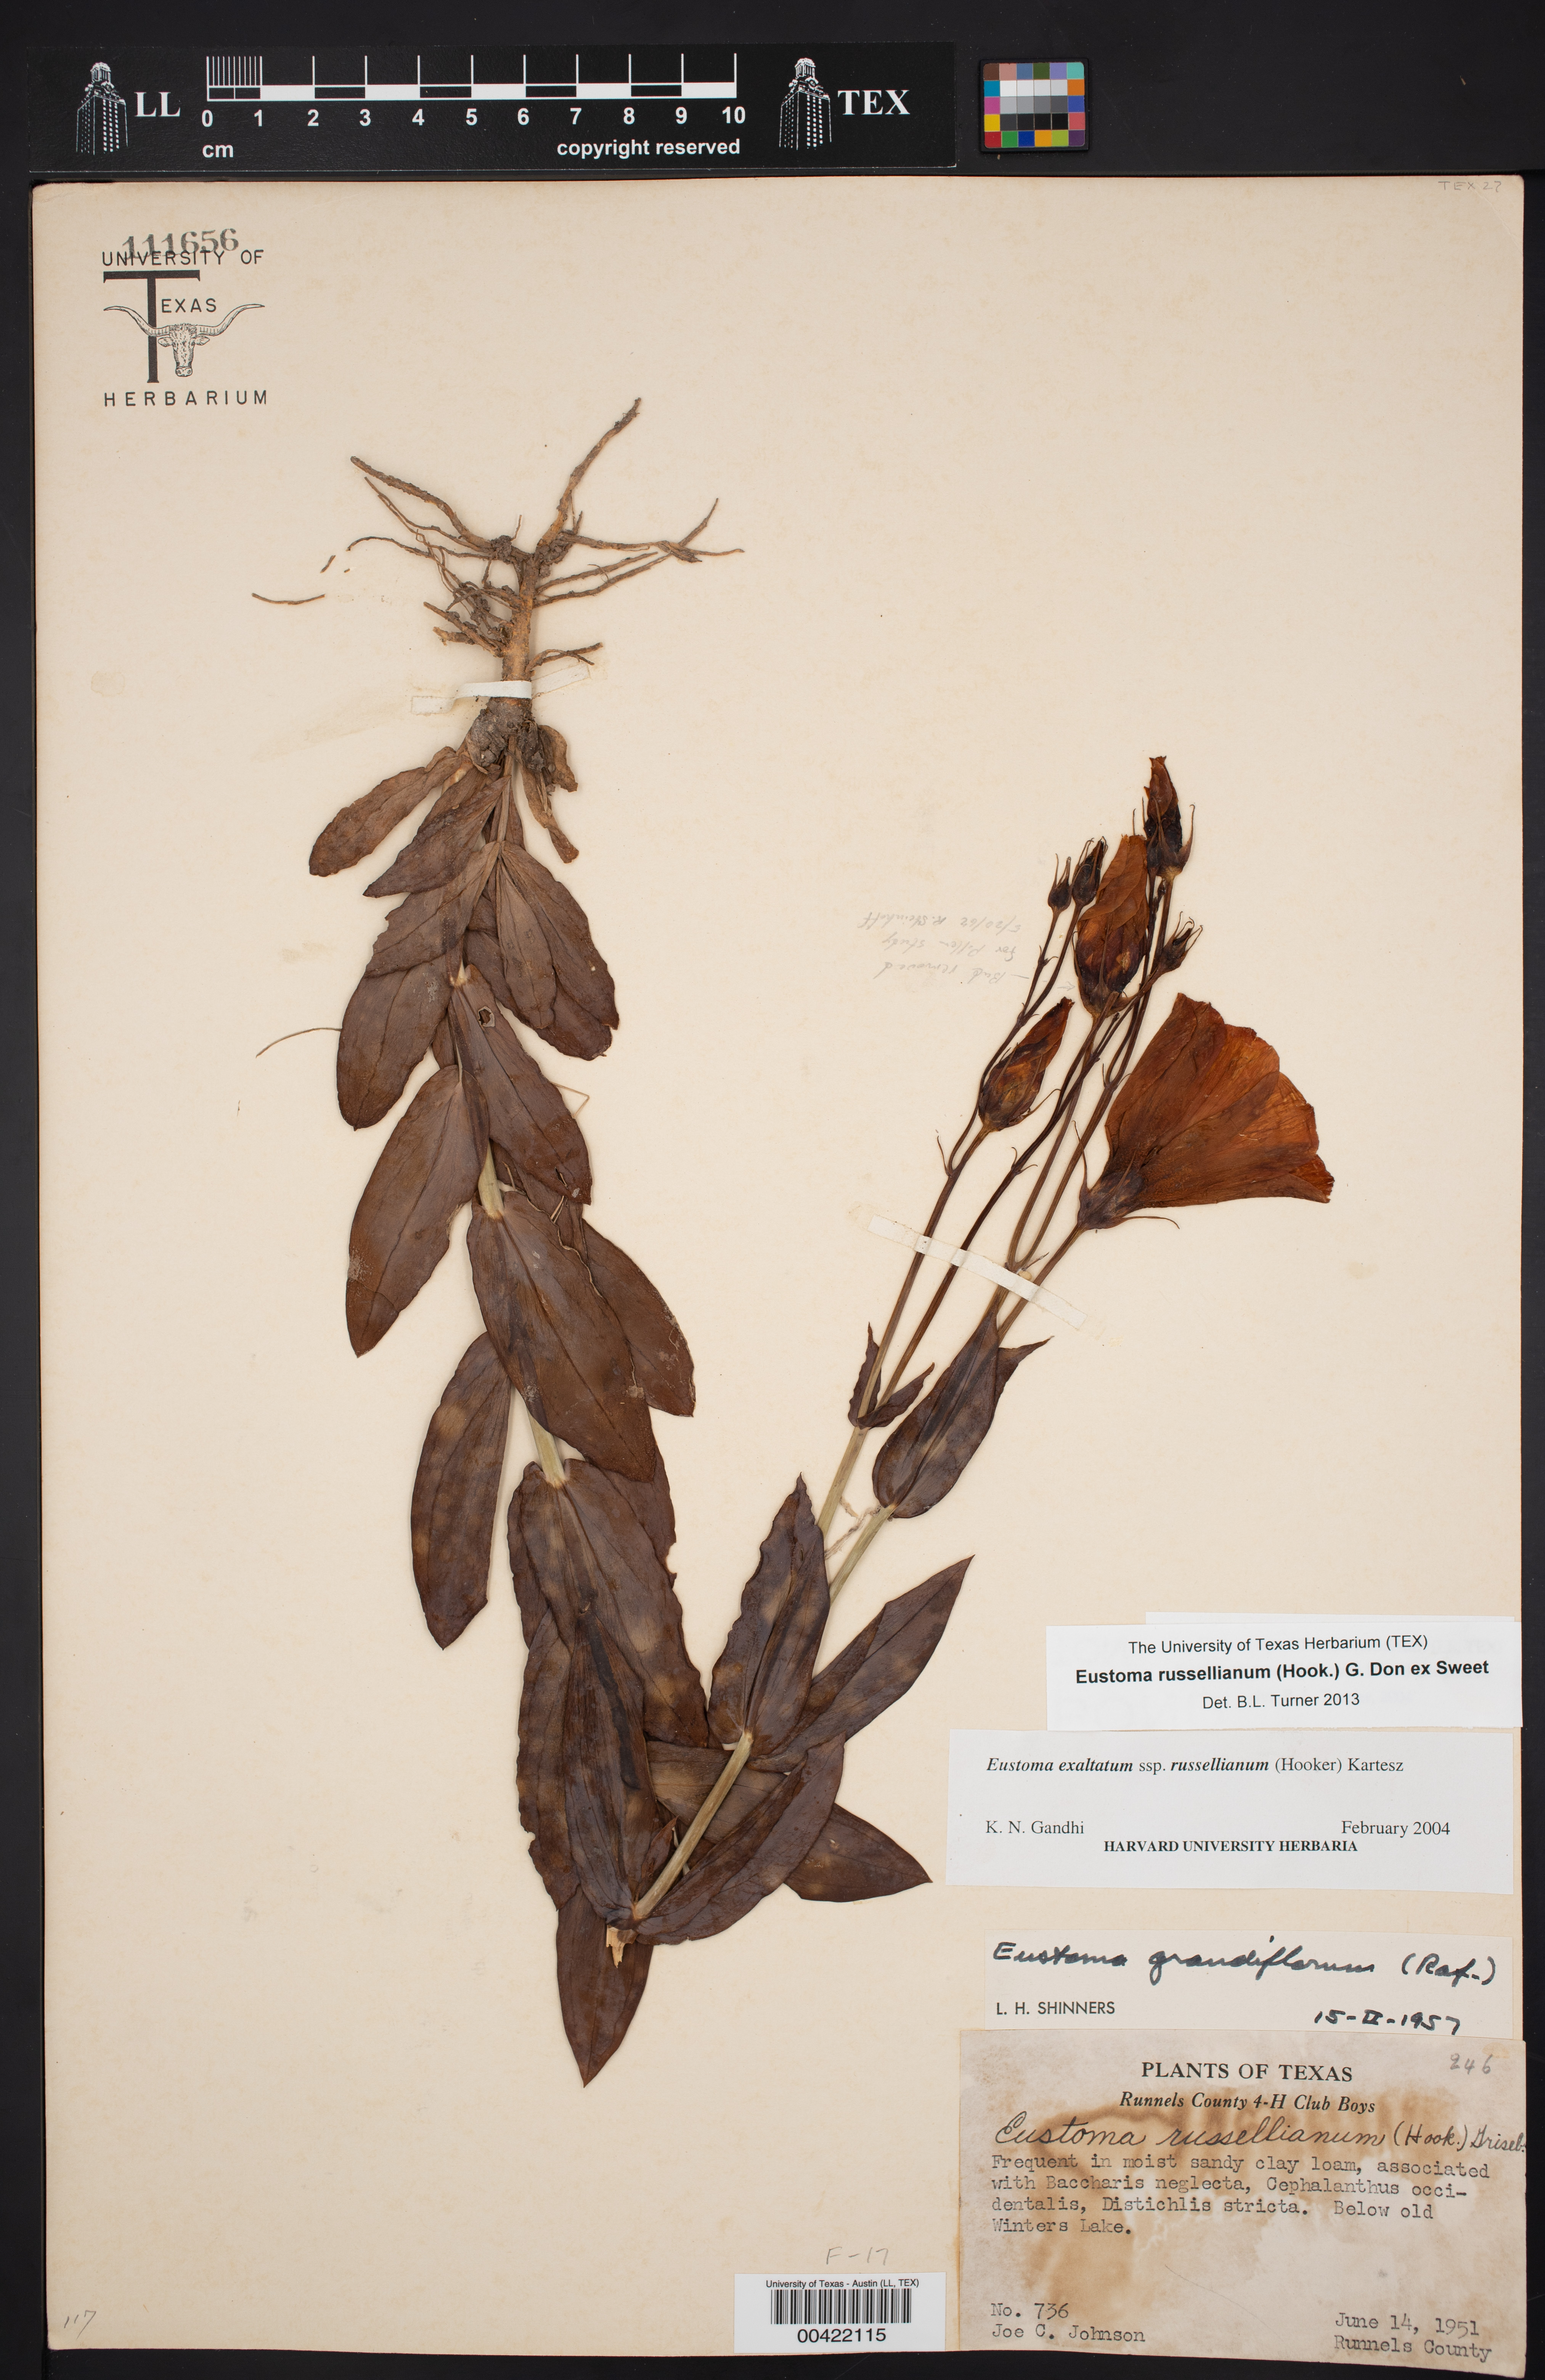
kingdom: Plantae
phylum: Tracheophyta
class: Magnoliopsida
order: Gentianales
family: Gentianaceae
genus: Eustoma
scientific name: Eustoma russellianum
